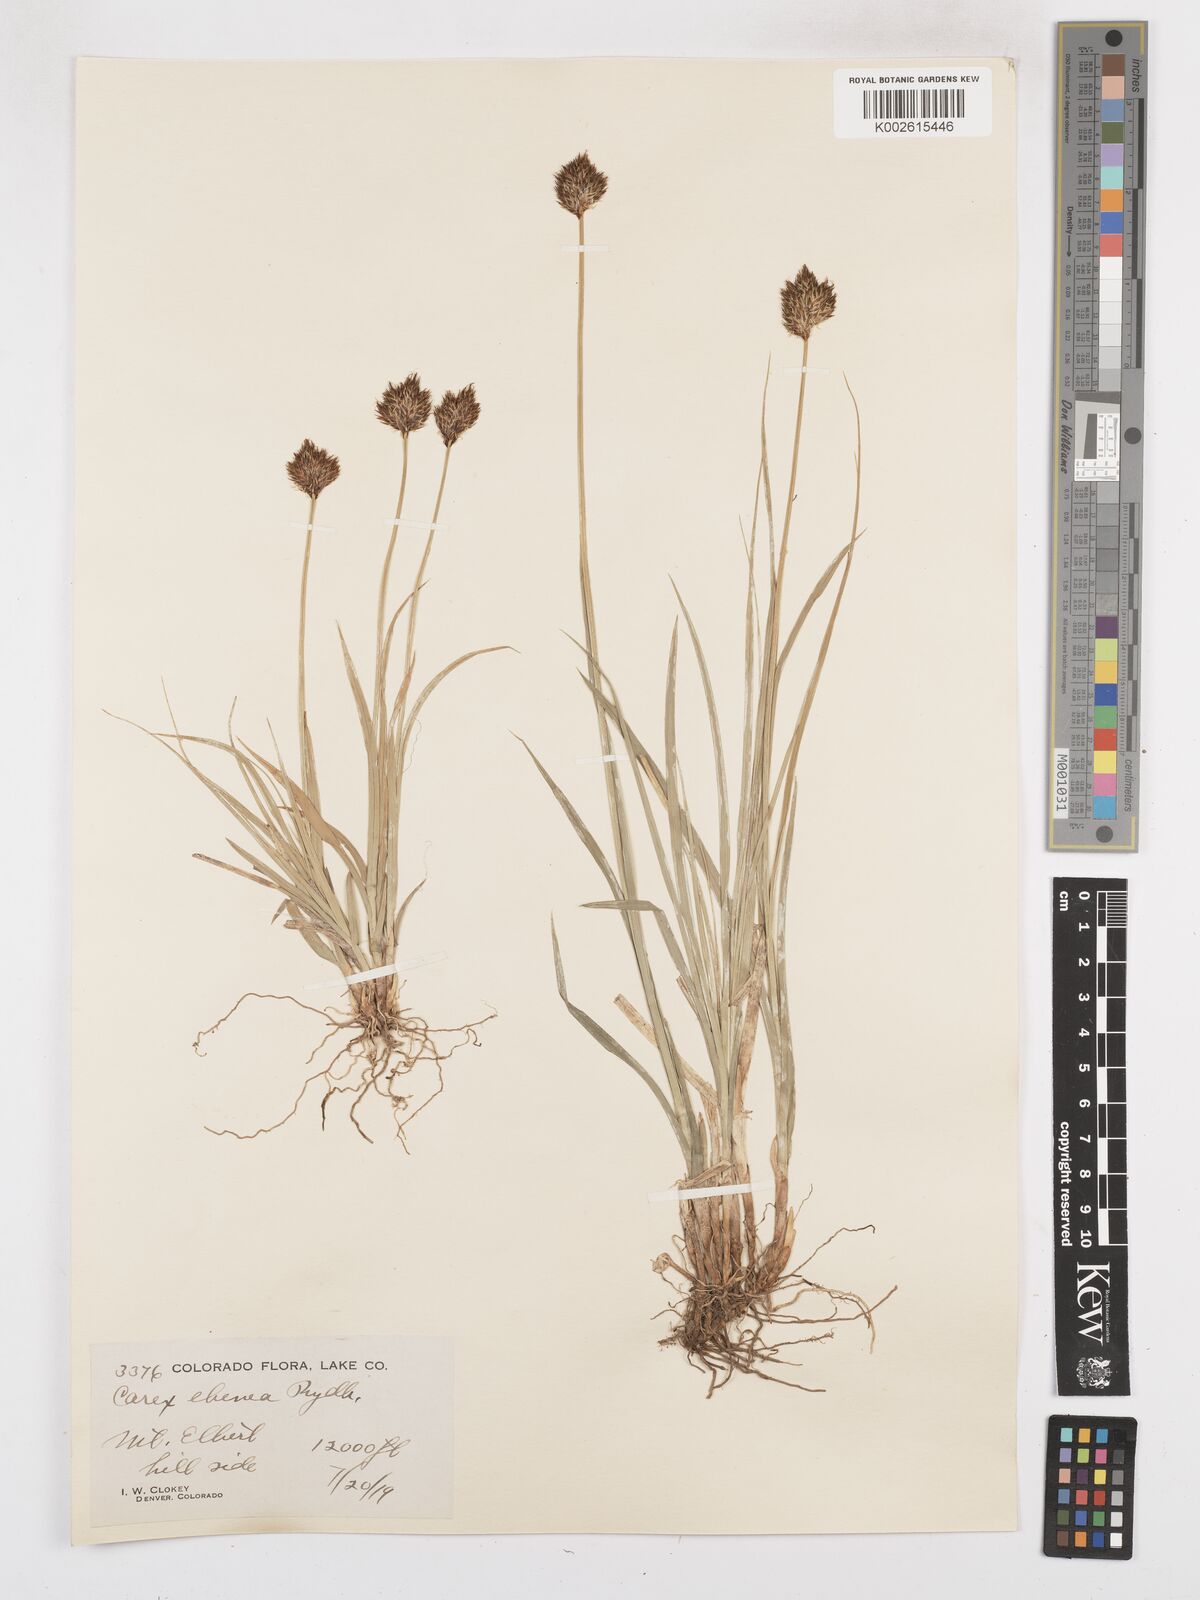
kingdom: Plantae
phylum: Tracheophyta
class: Liliopsida
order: Poales
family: Cyperaceae
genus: Carex
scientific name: Carex eburnea
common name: Bristle-leaved sedge
